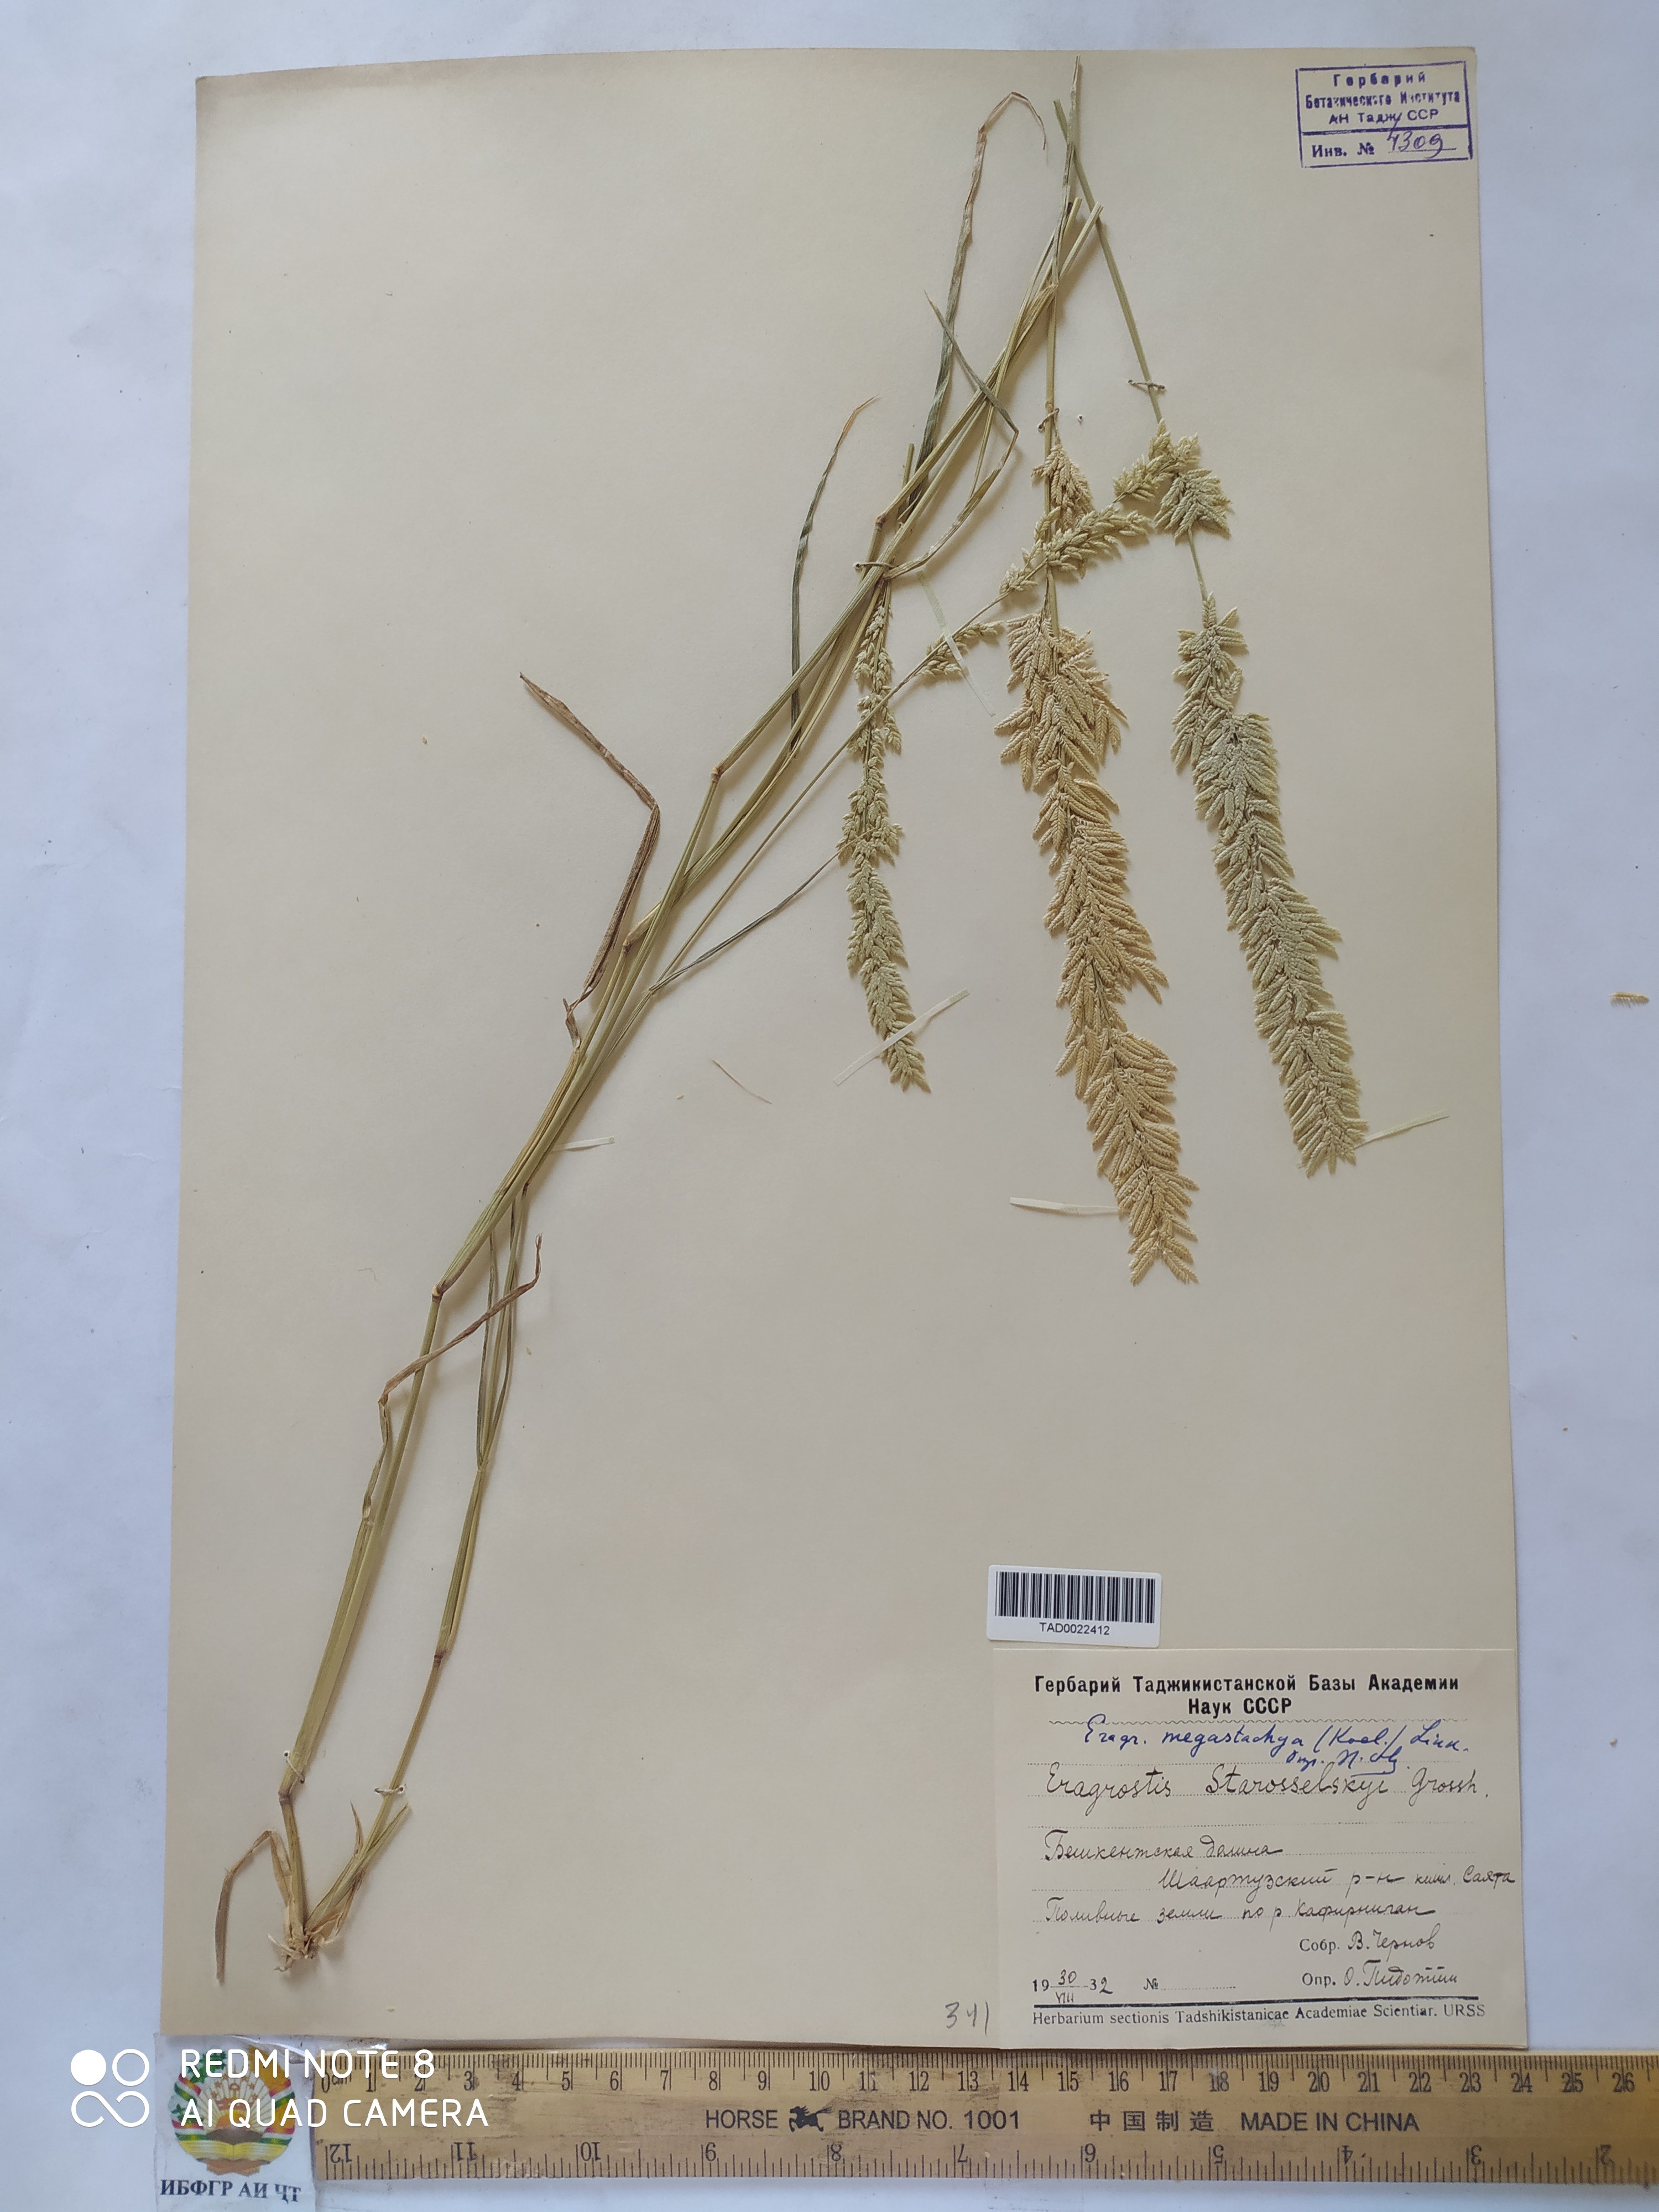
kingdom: Plantae
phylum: Tracheophyta
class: Liliopsida
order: Poales
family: Poaceae
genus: Eragrostis
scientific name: Eragrostis cilianensis
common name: Stinkgrass
